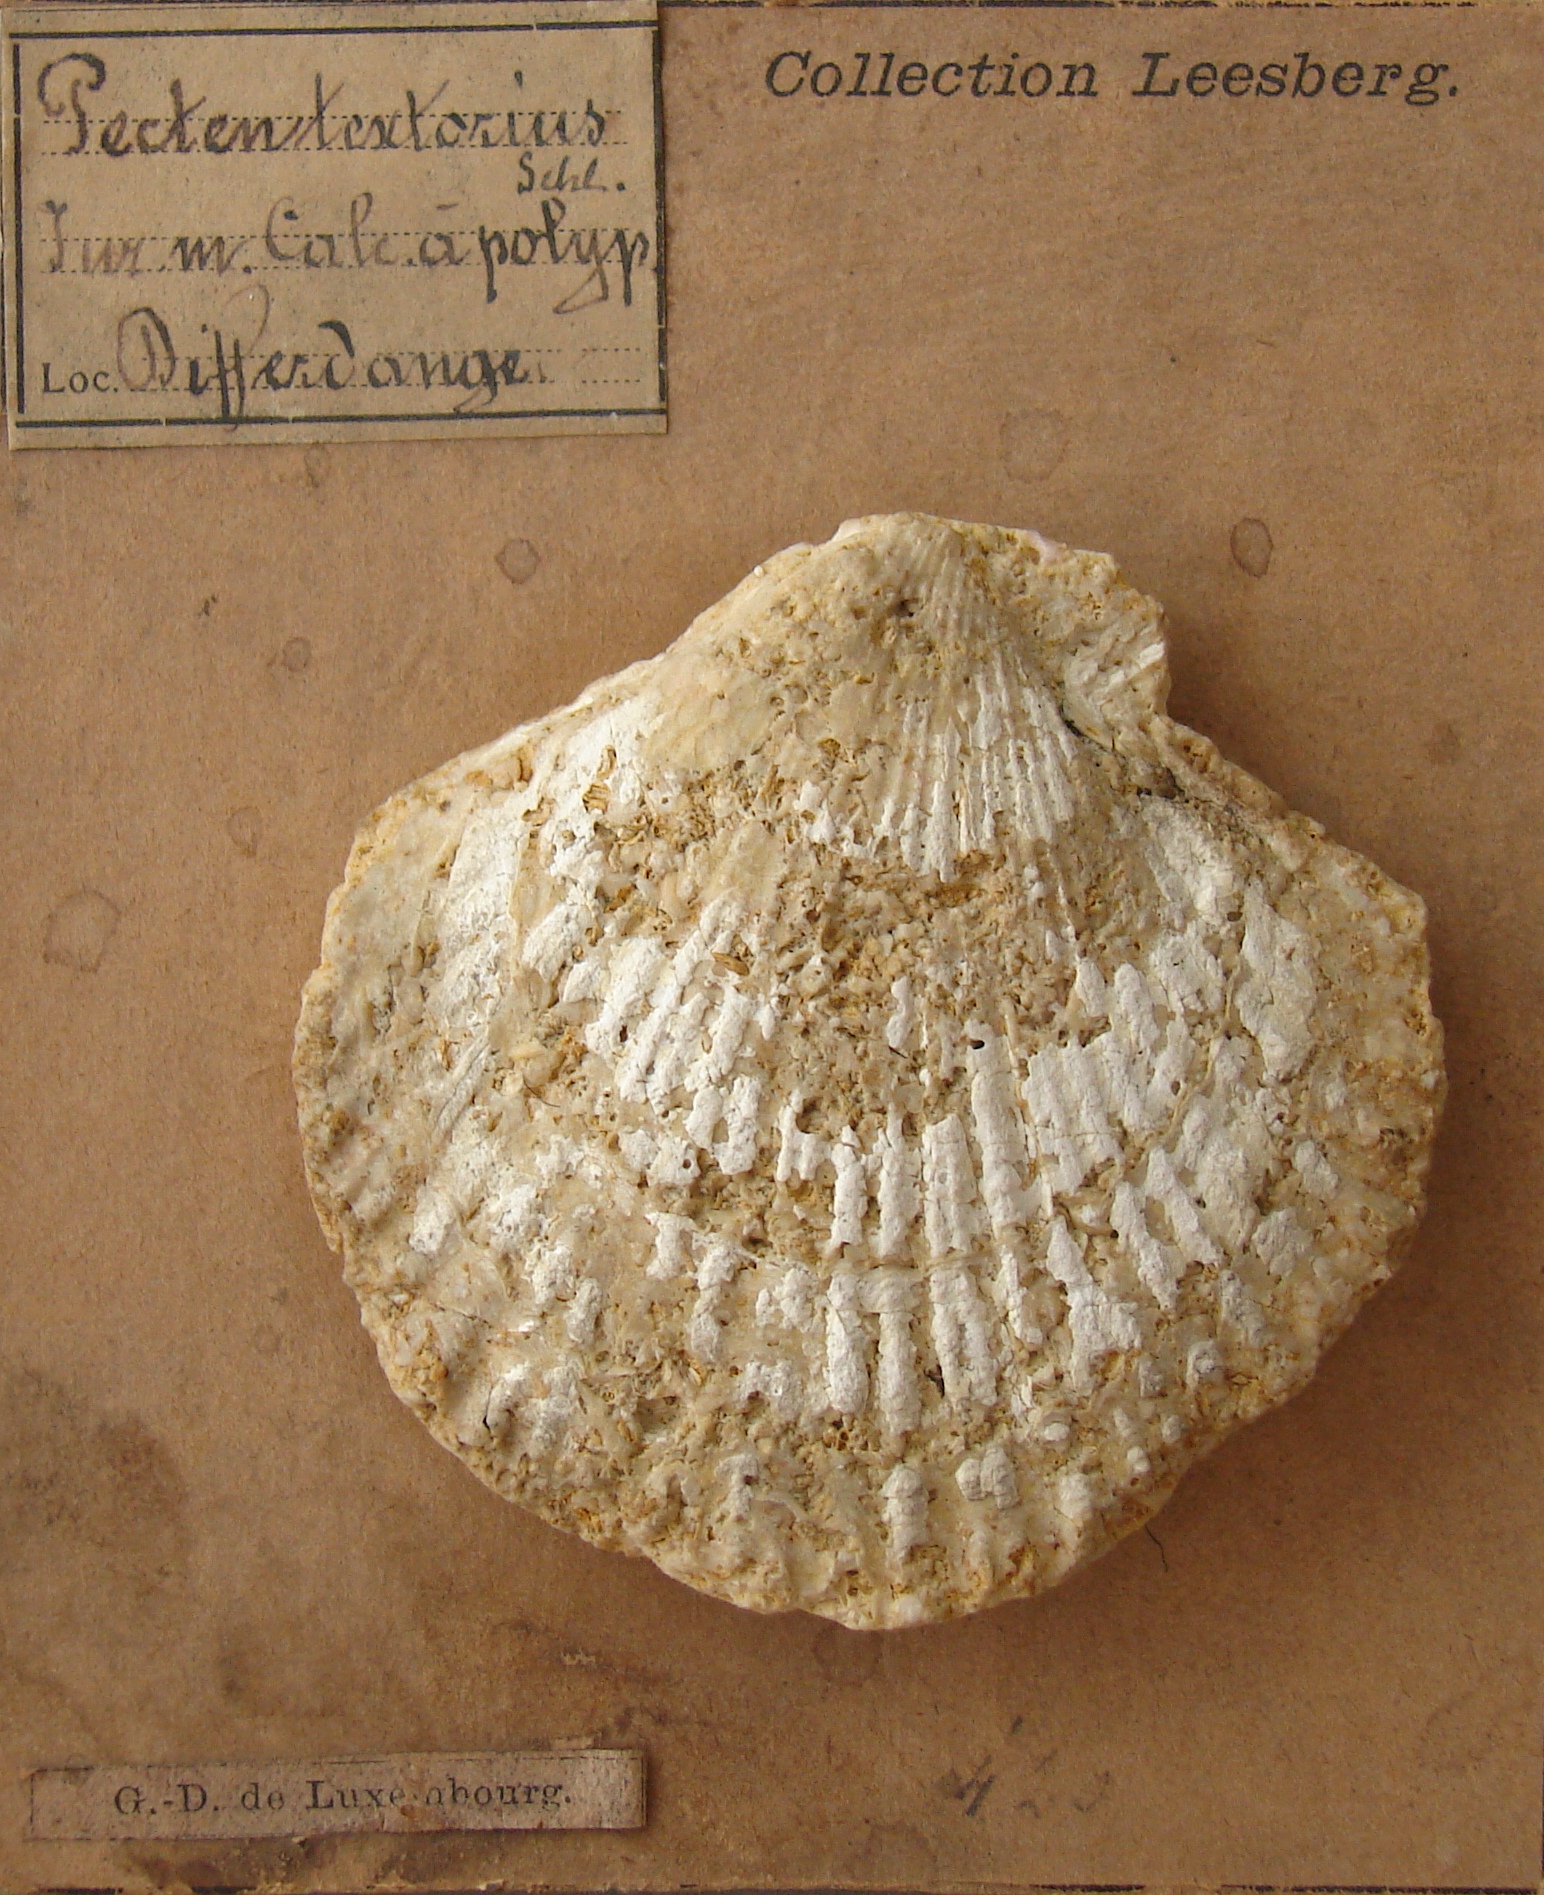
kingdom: Animalia
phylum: Mollusca
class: Bivalvia
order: Pectinida
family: Pectinidae
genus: Chlamys
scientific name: Chlamys textoria
